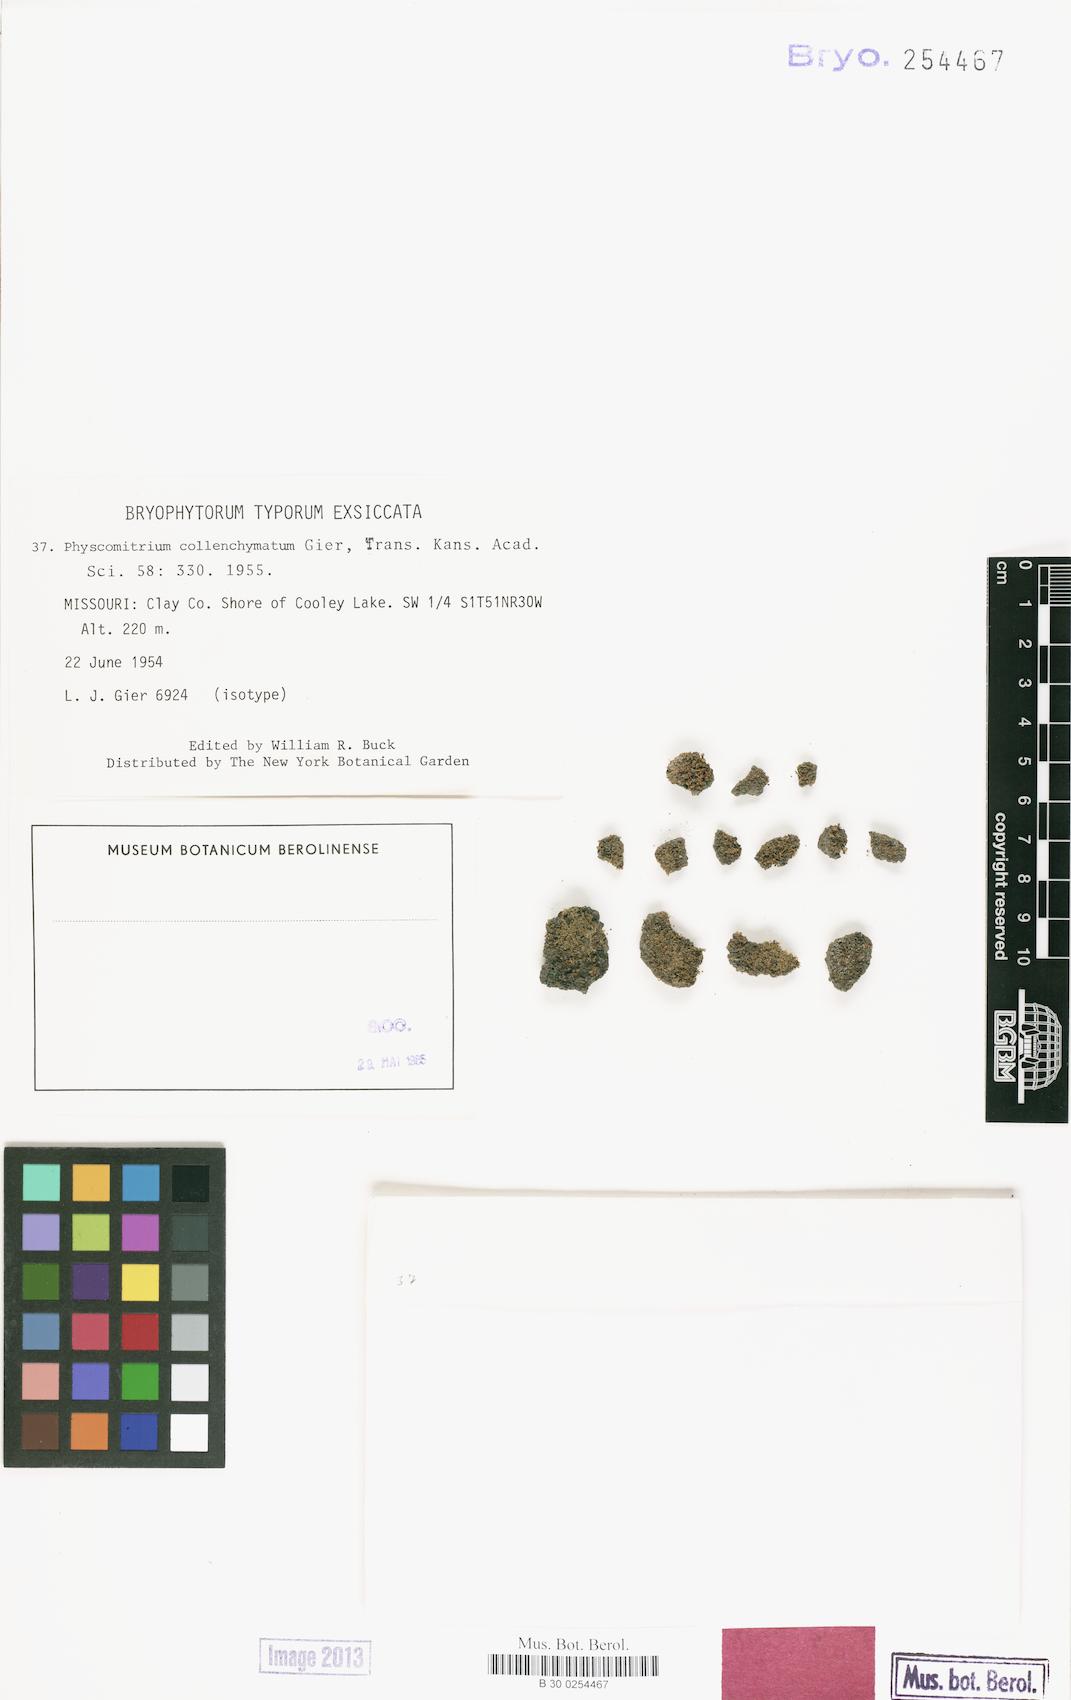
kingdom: Plantae
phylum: Bryophyta
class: Bryopsida
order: Funariales
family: Funariaceae
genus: Physcomitrium
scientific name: Physcomitrium collenchymatum
